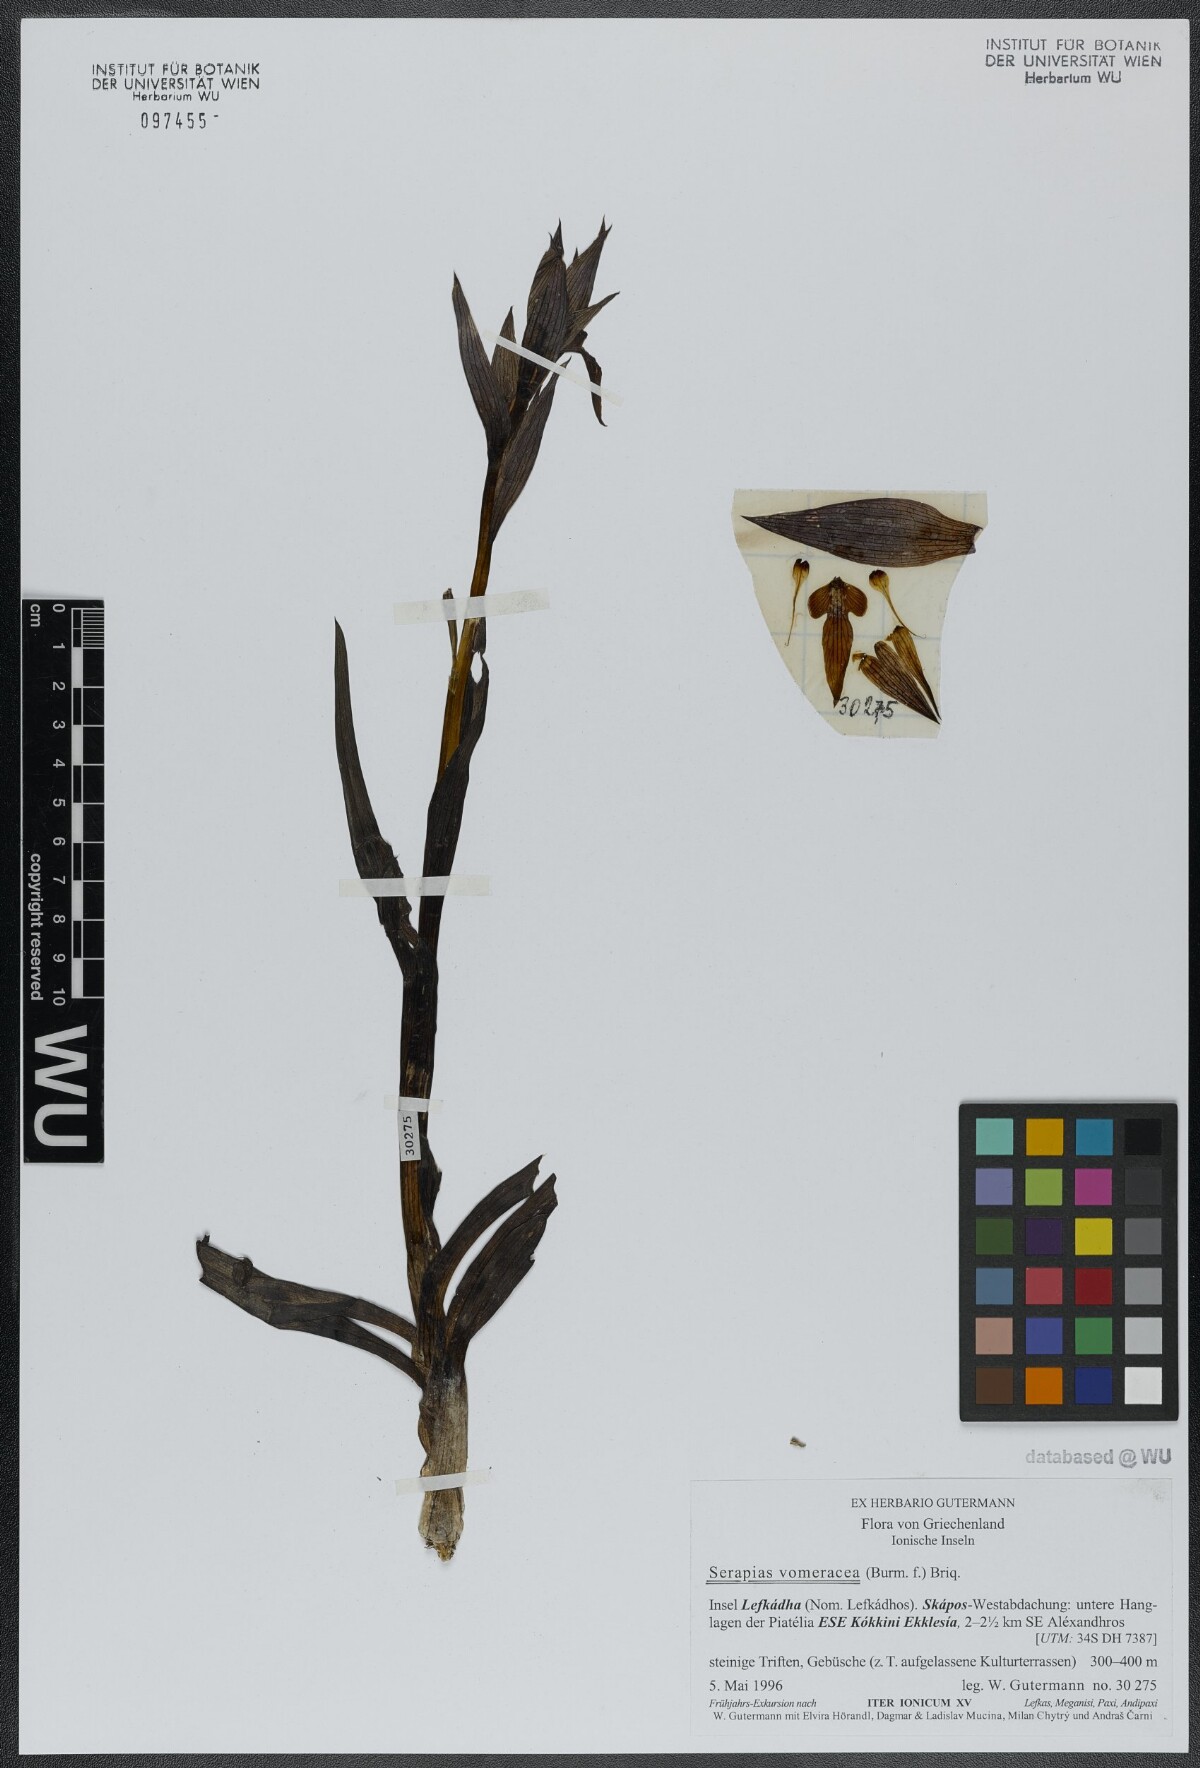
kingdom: Plantae
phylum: Tracheophyta
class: Liliopsida
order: Asparagales
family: Orchidaceae
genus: Serapias
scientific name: Serapias vomeracea
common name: Long-lipped tongue-orchid
